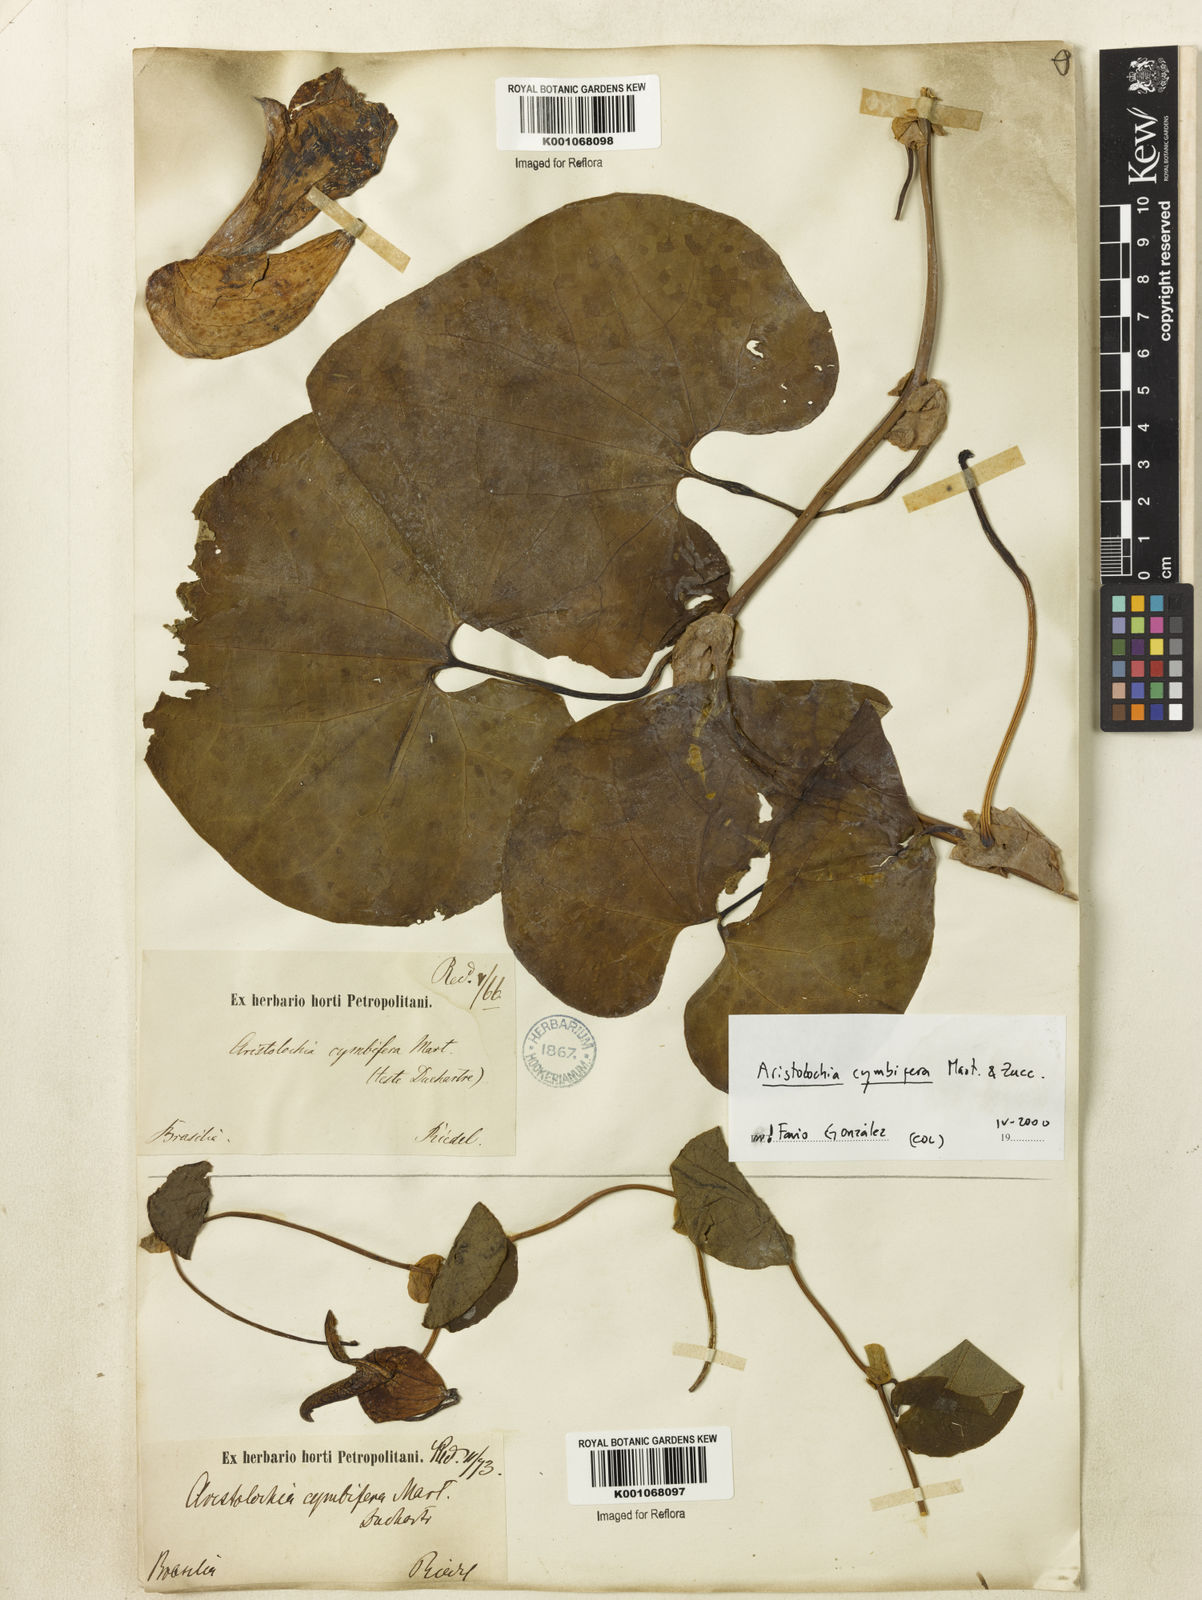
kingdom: Plantae
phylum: Tracheophyta
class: Magnoliopsida
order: Piperales
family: Aristolochiaceae
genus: Aristolochia
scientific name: Aristolochia cymbifera
